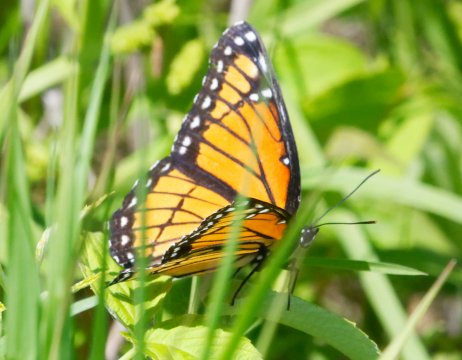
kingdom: Animalia
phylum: Arthropoda
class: Insecta
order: Lepidoptera
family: Nymphalidae
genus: Limenitis
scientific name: Limenitis archippus
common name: Viceroy
